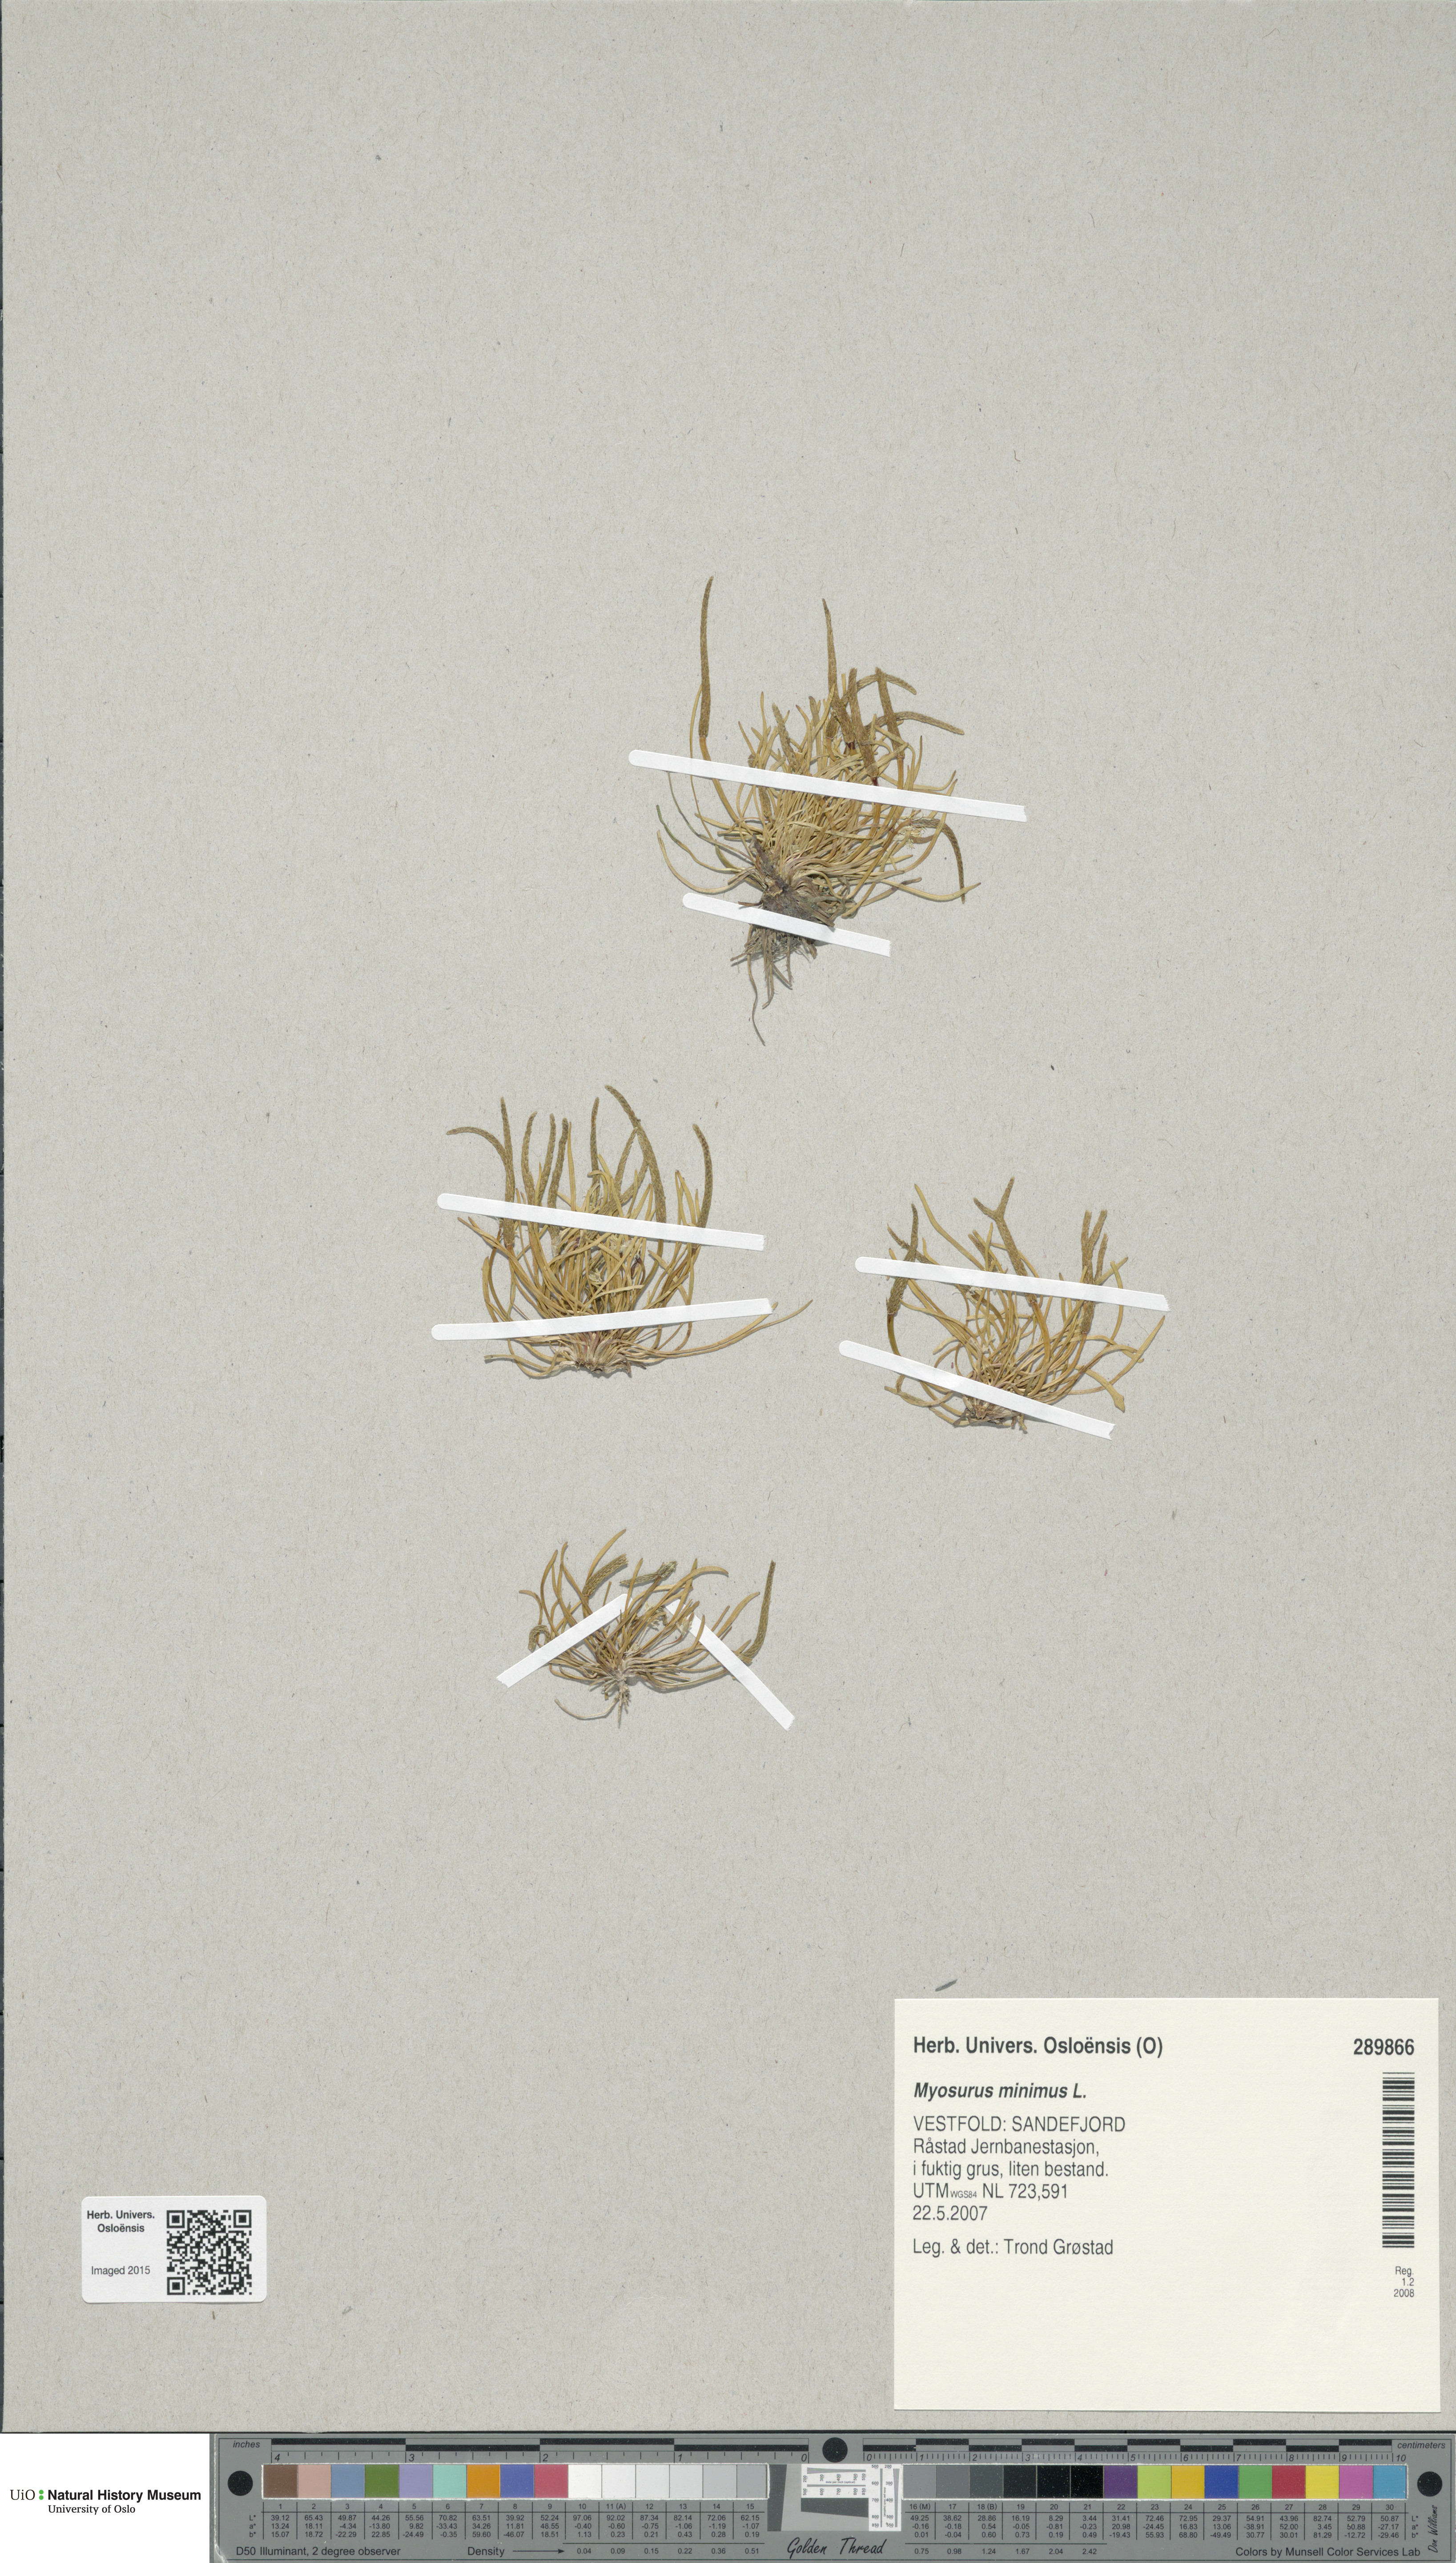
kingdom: Plantae
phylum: Tracheophyta
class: Magnoliopsida
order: Ranunculales
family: Ranunculaceae
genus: Myosurus
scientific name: Myosurus minimus
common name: Mousetail
